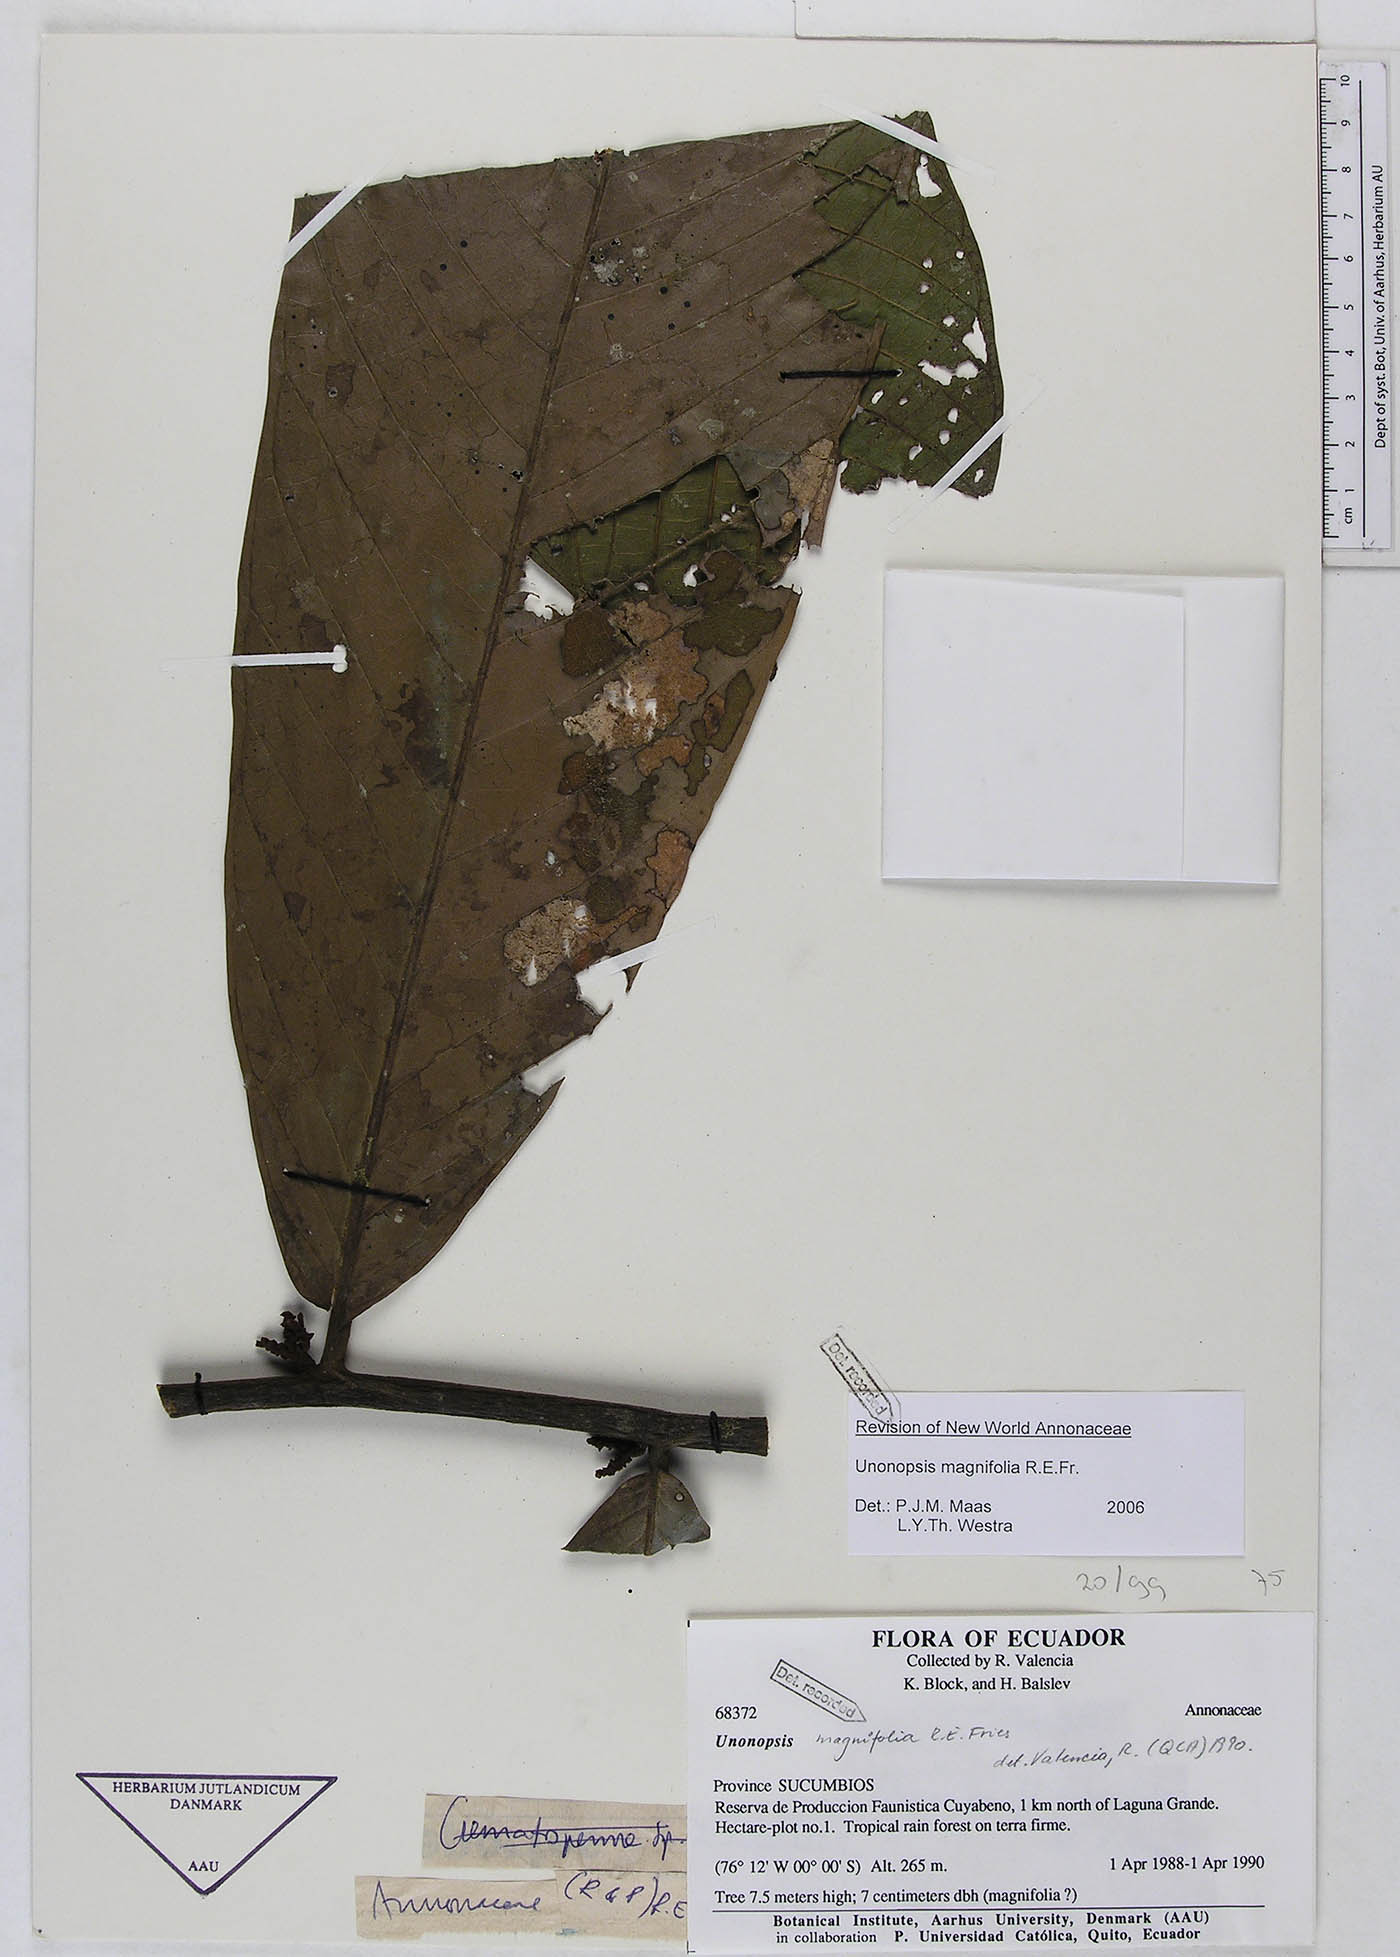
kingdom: Plantae
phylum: Tracheophyta
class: Magnoliopsida
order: Magnoliales
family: Annonaceae
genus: Unonopsis
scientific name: Unonopsis magnifolia
